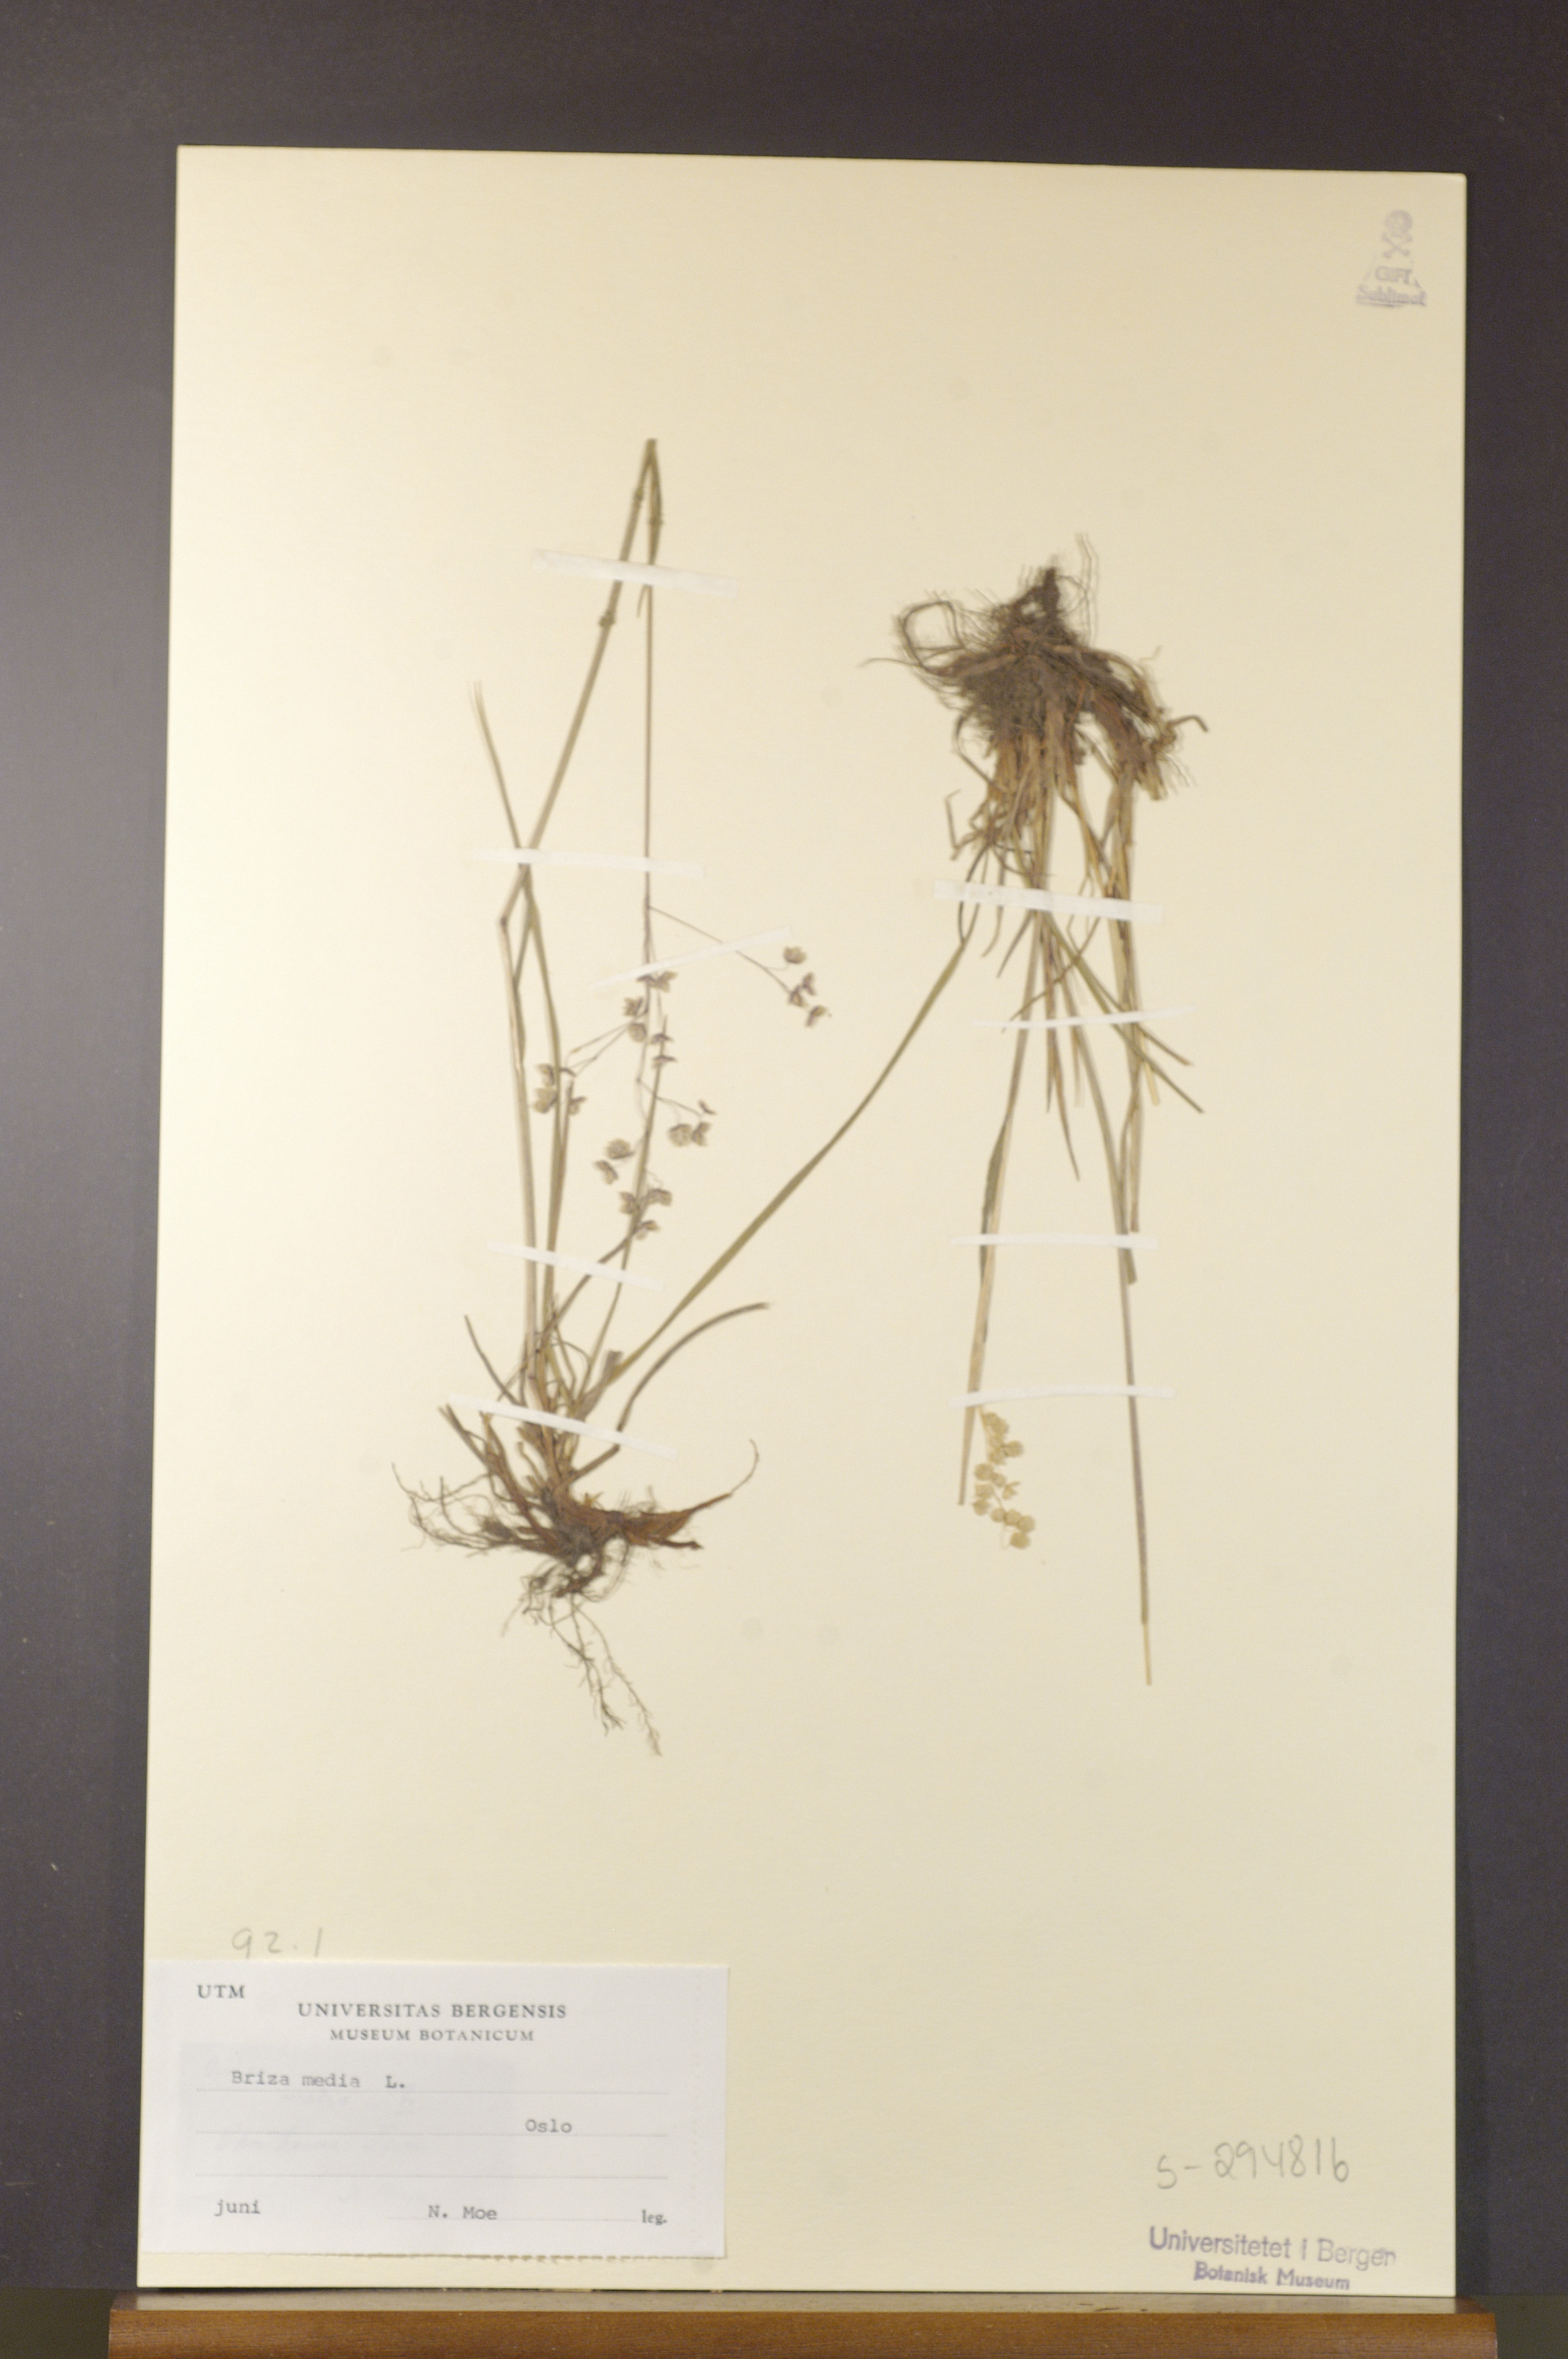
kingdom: Plantae
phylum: Tracheophyta
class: Liliopsida
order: Poales
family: Poaceae
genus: Briza
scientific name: Briza media
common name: Quaking grass
